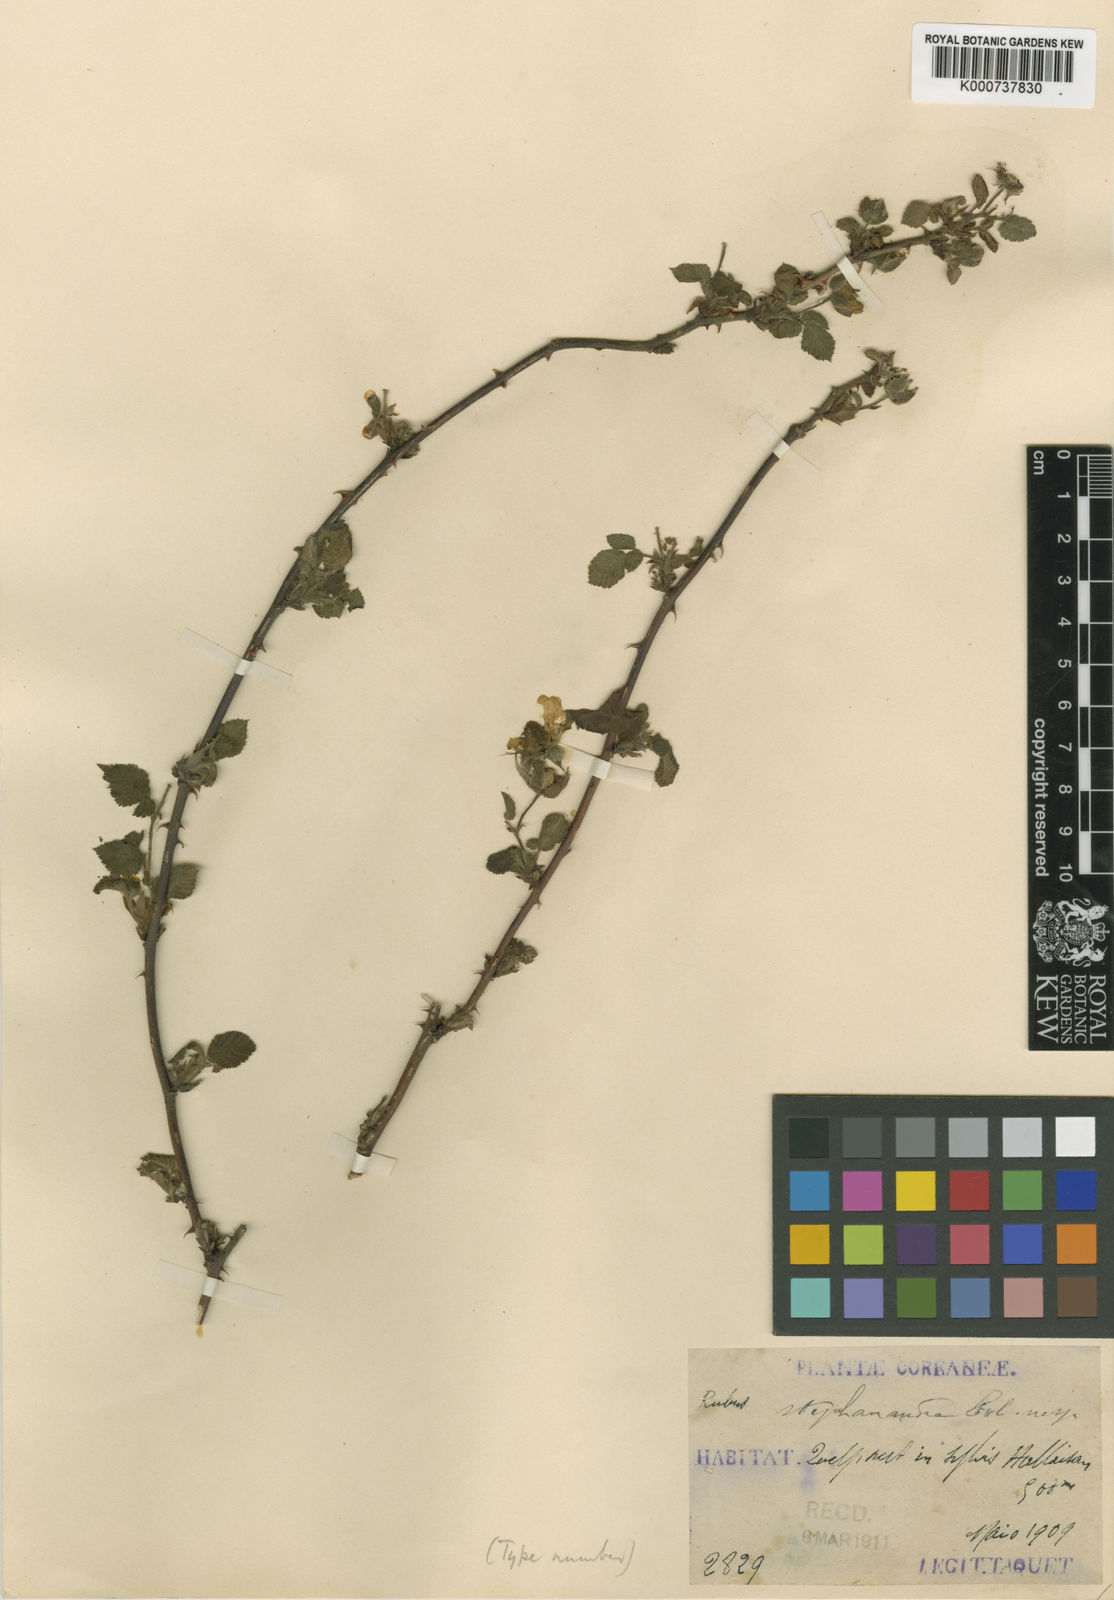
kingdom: Plantae
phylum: Tracheophyta
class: Magnoliopsida
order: Rosales
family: Rosaceae
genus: Rubus
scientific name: Rubus
